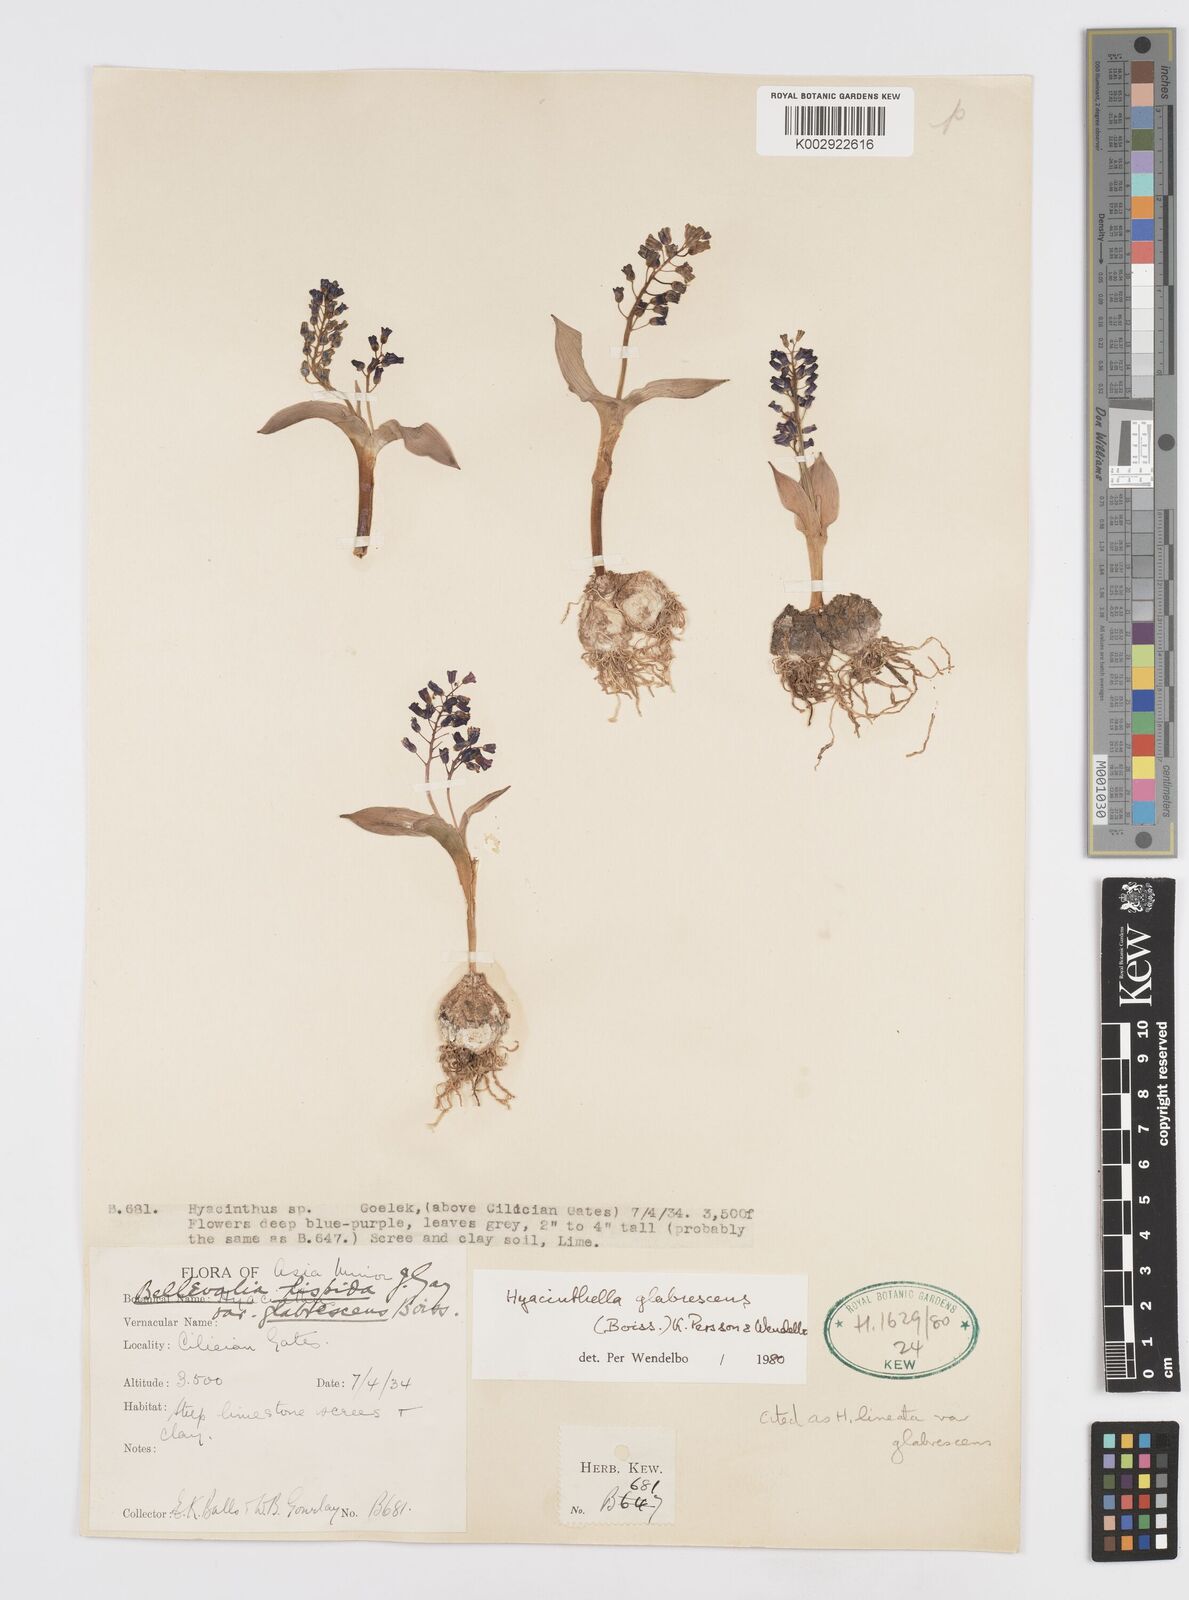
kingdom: Plantae
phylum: Tracheophyta
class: Liliopsida
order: Asparagales
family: Asparagaceae
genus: Hyacinthella
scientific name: Hyacinthella glabrescens
